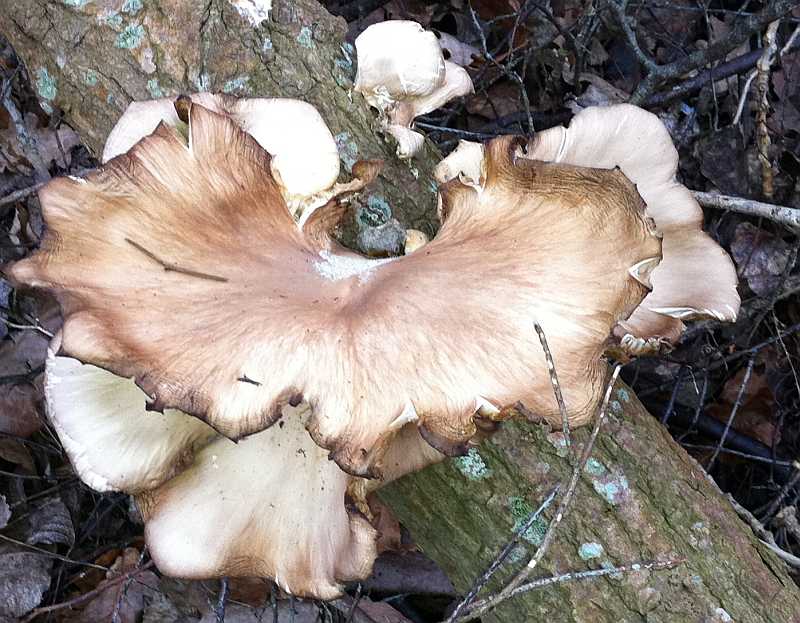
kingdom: Fungi
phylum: Basidiomycota
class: Agaricomycetes
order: Agaricales
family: Pleurotaceae
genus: Pleurotus
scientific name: Pleurotus ostreatus
